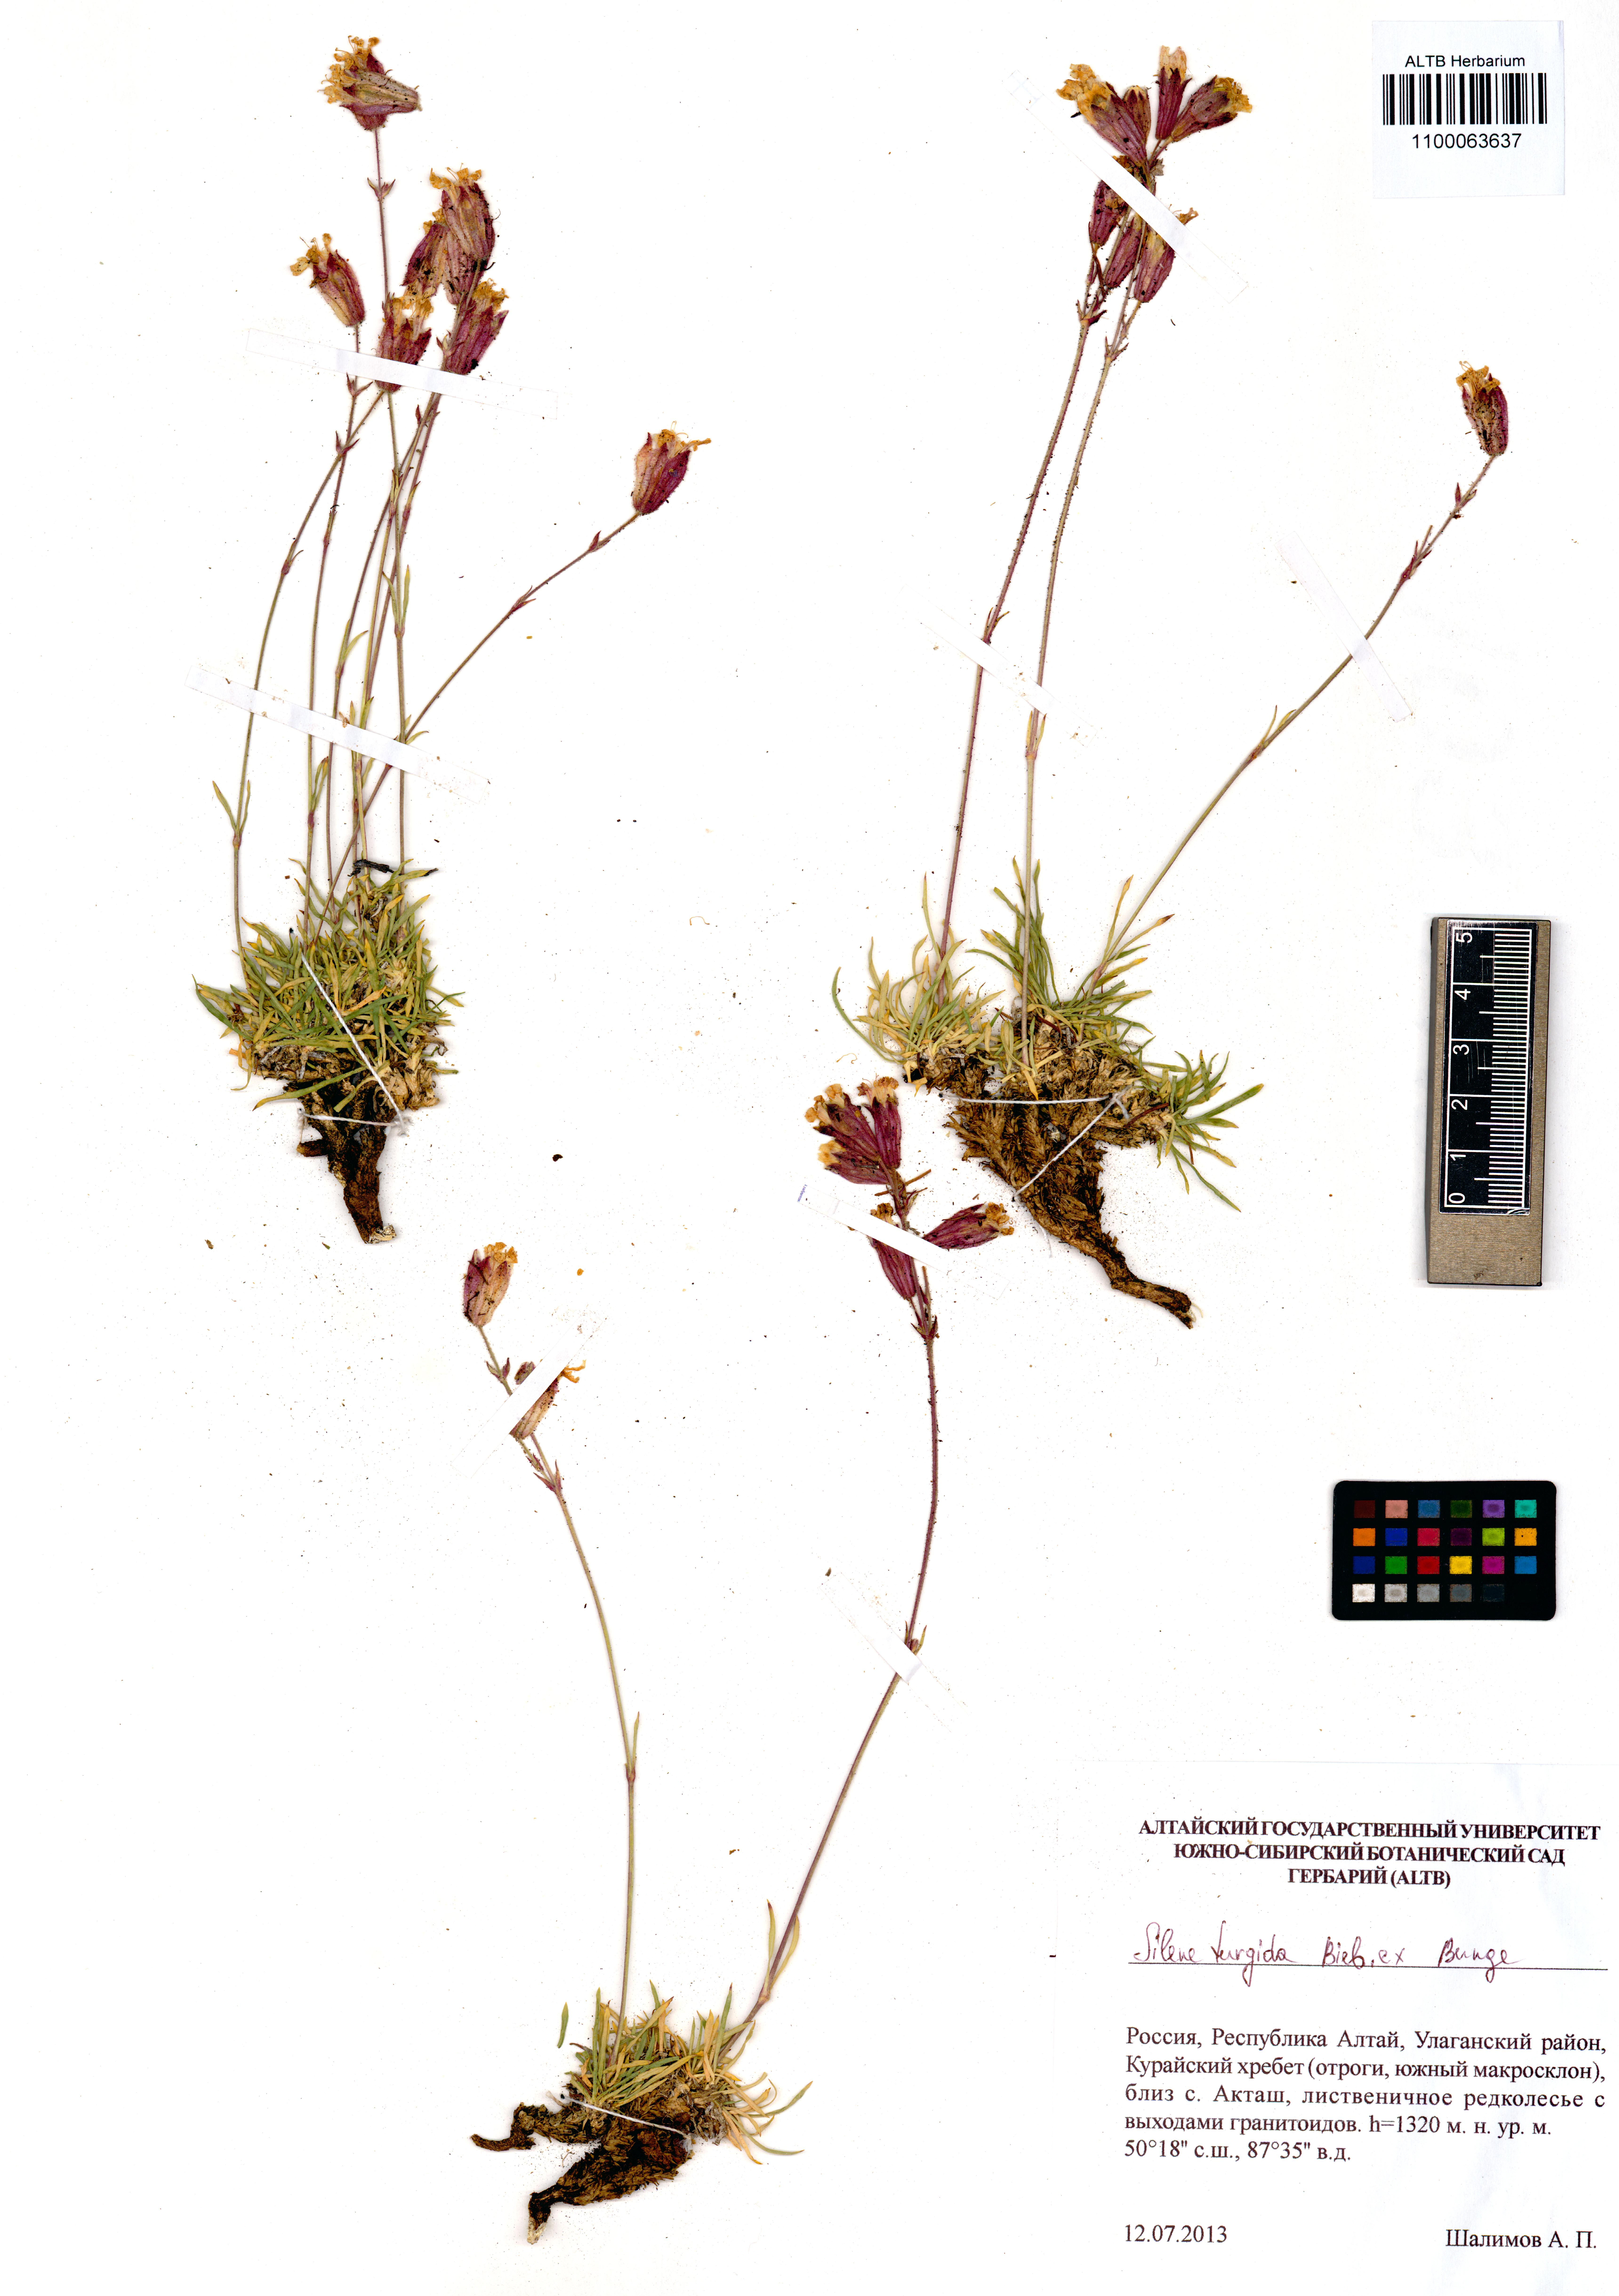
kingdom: Plantae
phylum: Tracheophyta
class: Magnoliopsida
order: Caryophyllales
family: Caryophyllaceae
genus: Silene
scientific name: Silene turgida
